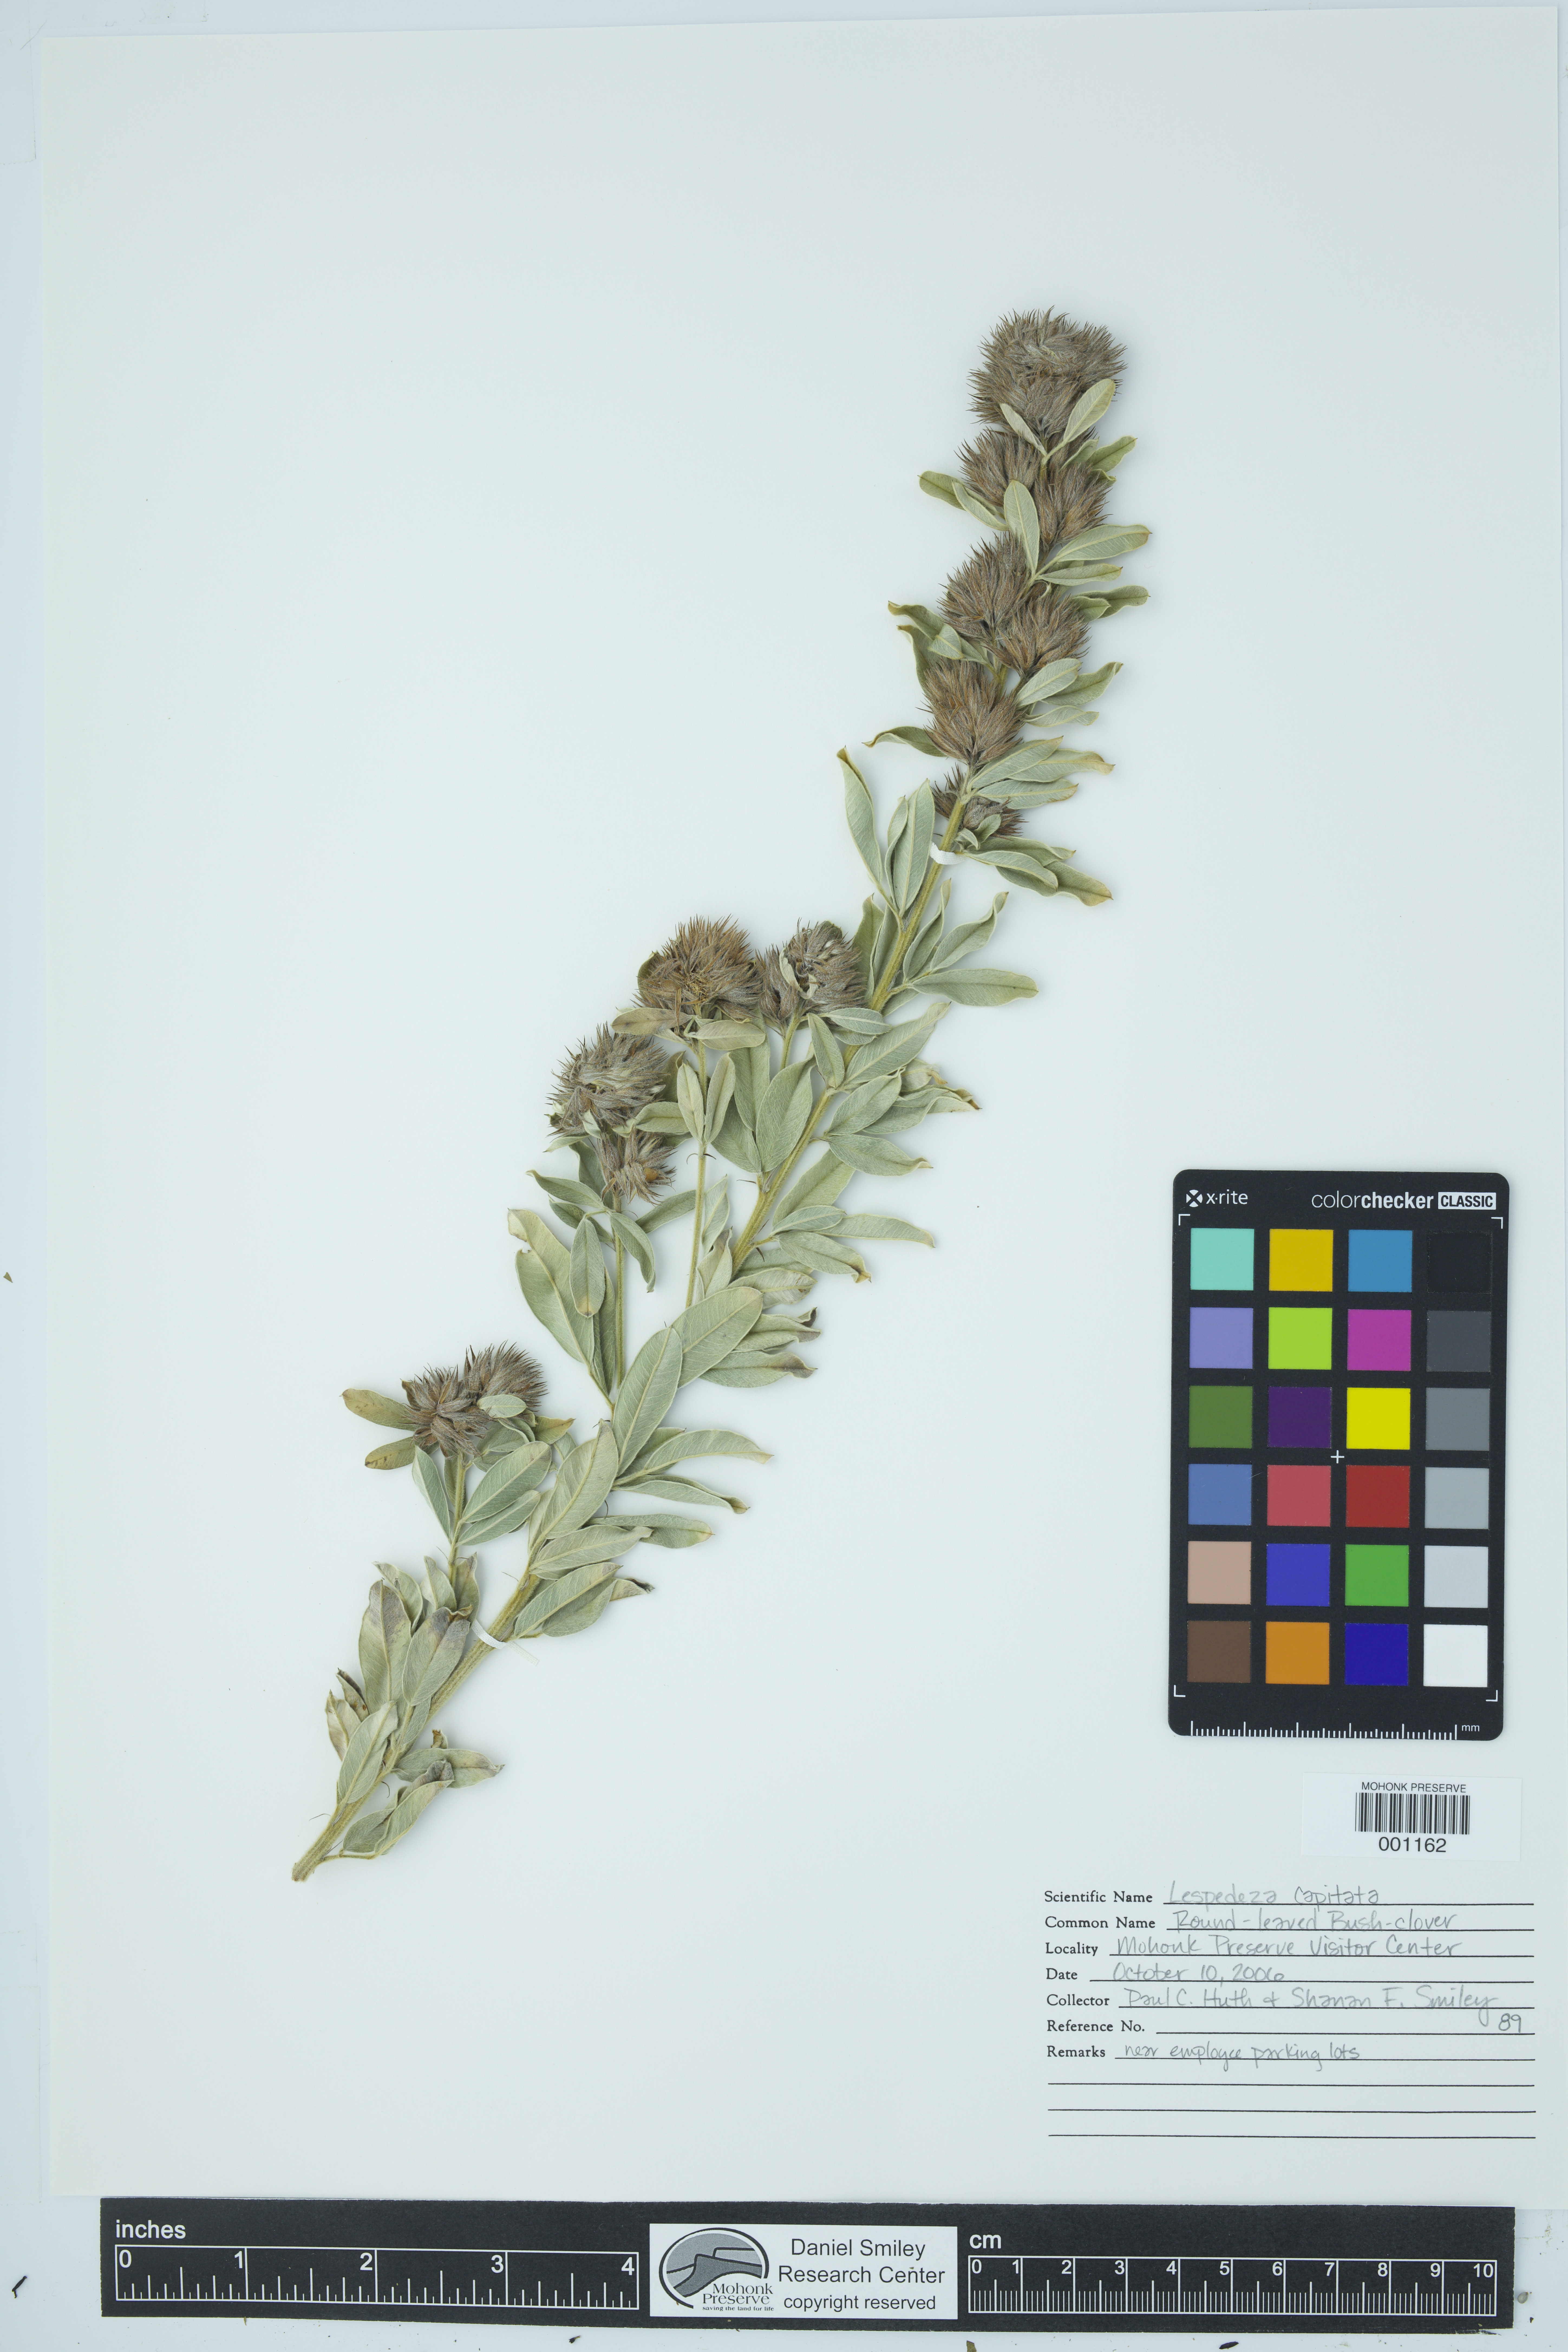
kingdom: Plantae
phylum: Tracheophyta
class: Magnoliopsida
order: Fabales
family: Fabaceae
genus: Lespedeza
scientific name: Lespedeza capitata
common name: Dusty clover
